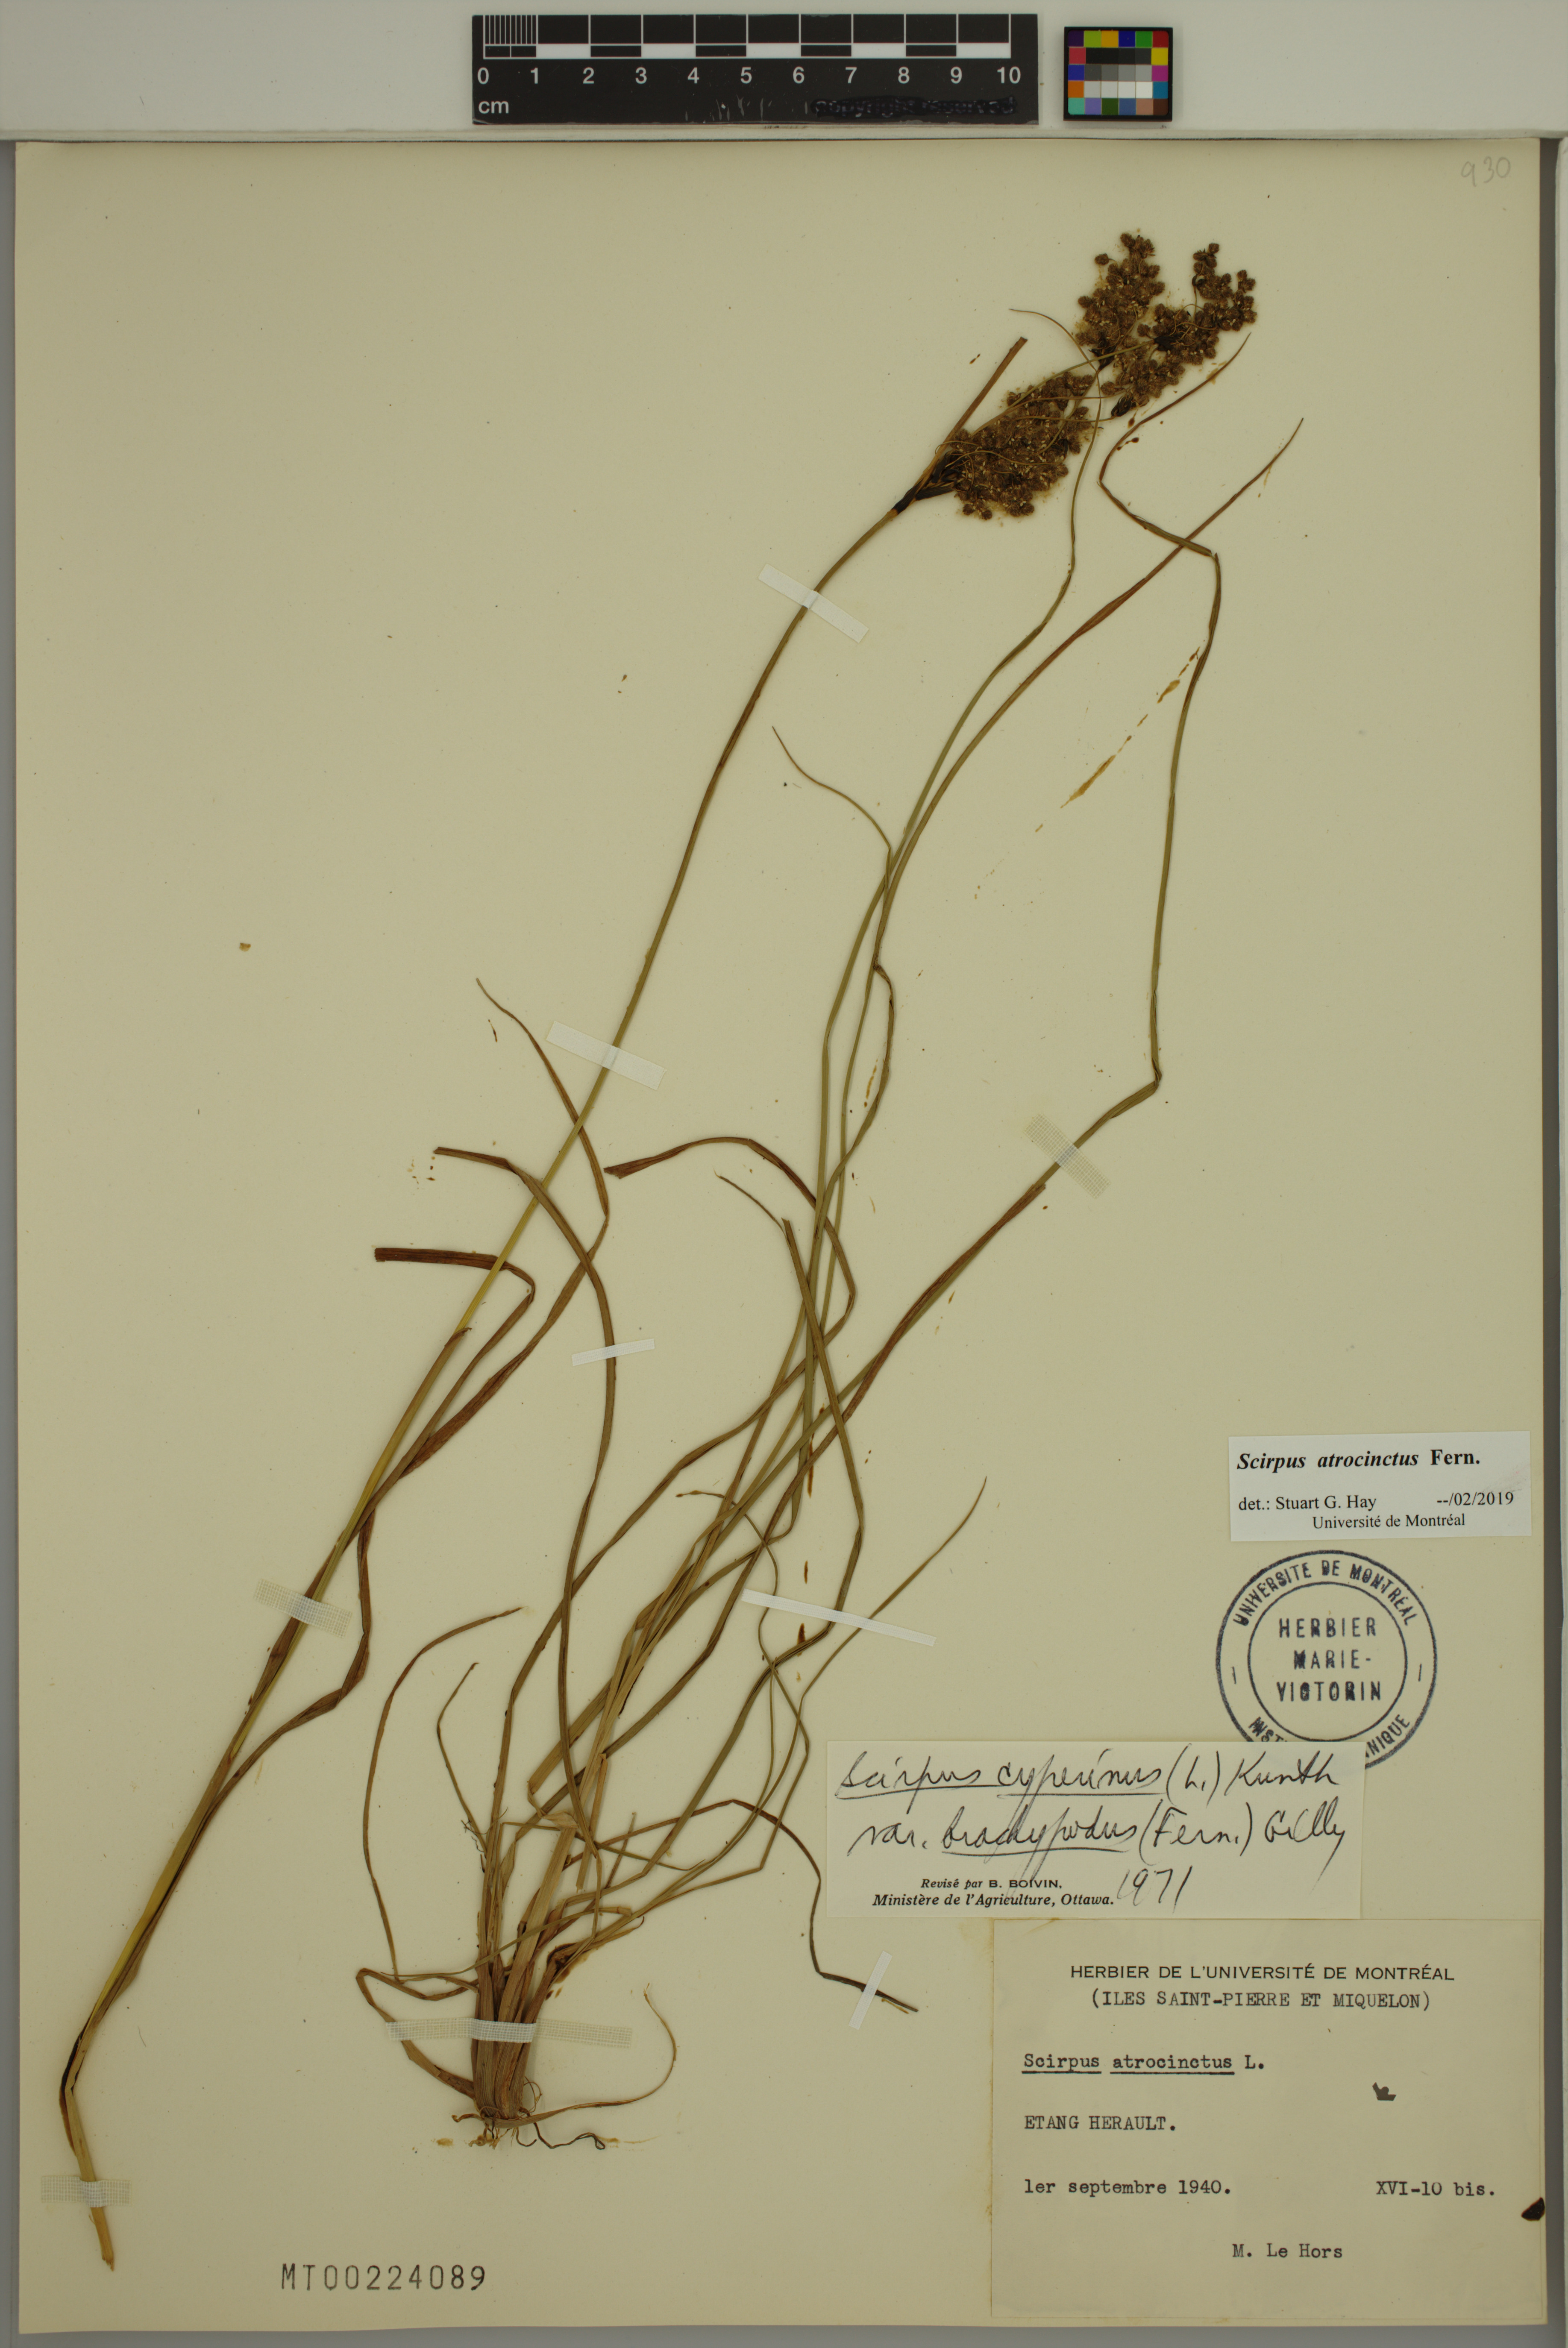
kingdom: Plantae
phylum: Tracheophyta
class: Liliopsida
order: Poales
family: Cyperaceae
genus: Scirpus
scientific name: Scirpus atrocinctus
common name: Black-girdled bulrush
